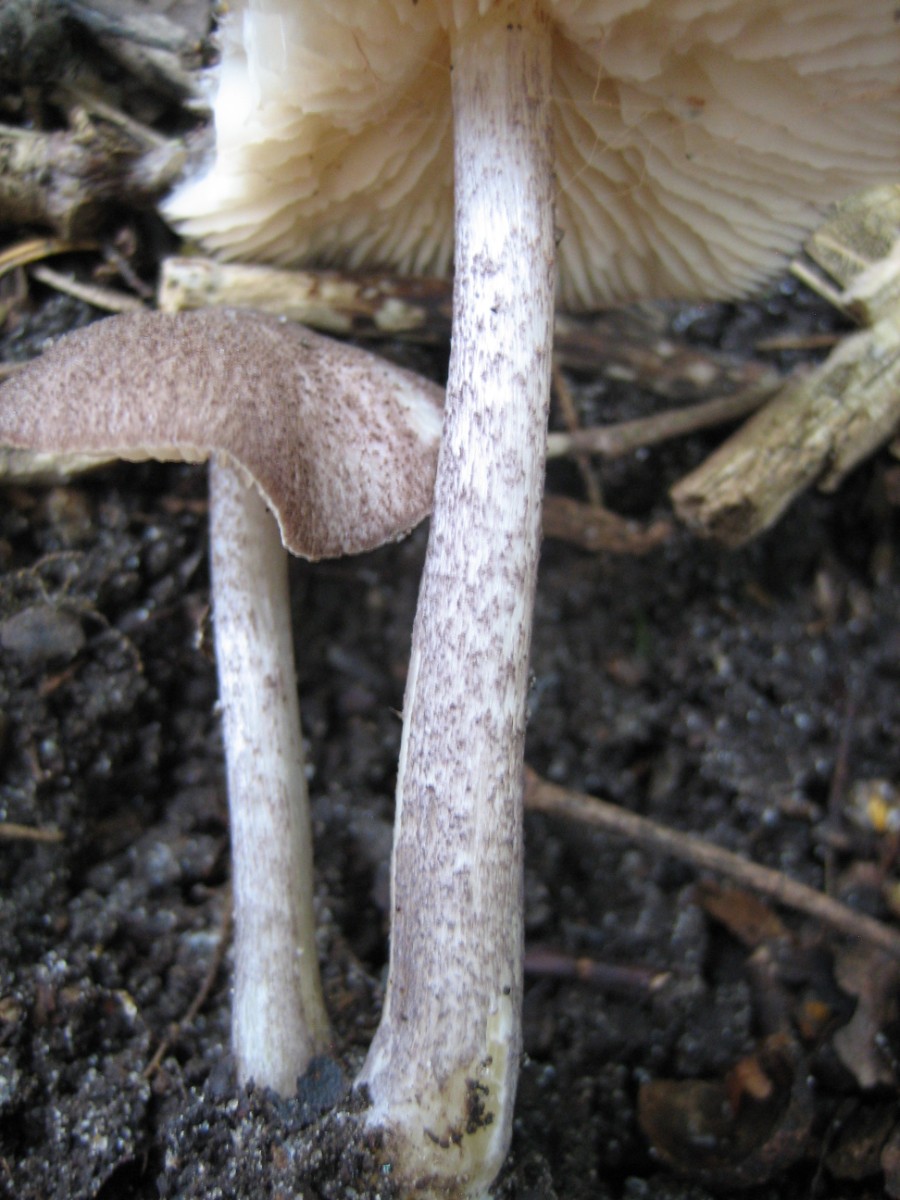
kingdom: Fungi
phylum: Basidiomycota
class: Agaricomycetes
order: Agaricales
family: Entolomataceae
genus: Entoloma
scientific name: Entoloma allochroum
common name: Rødviolet rødblad
